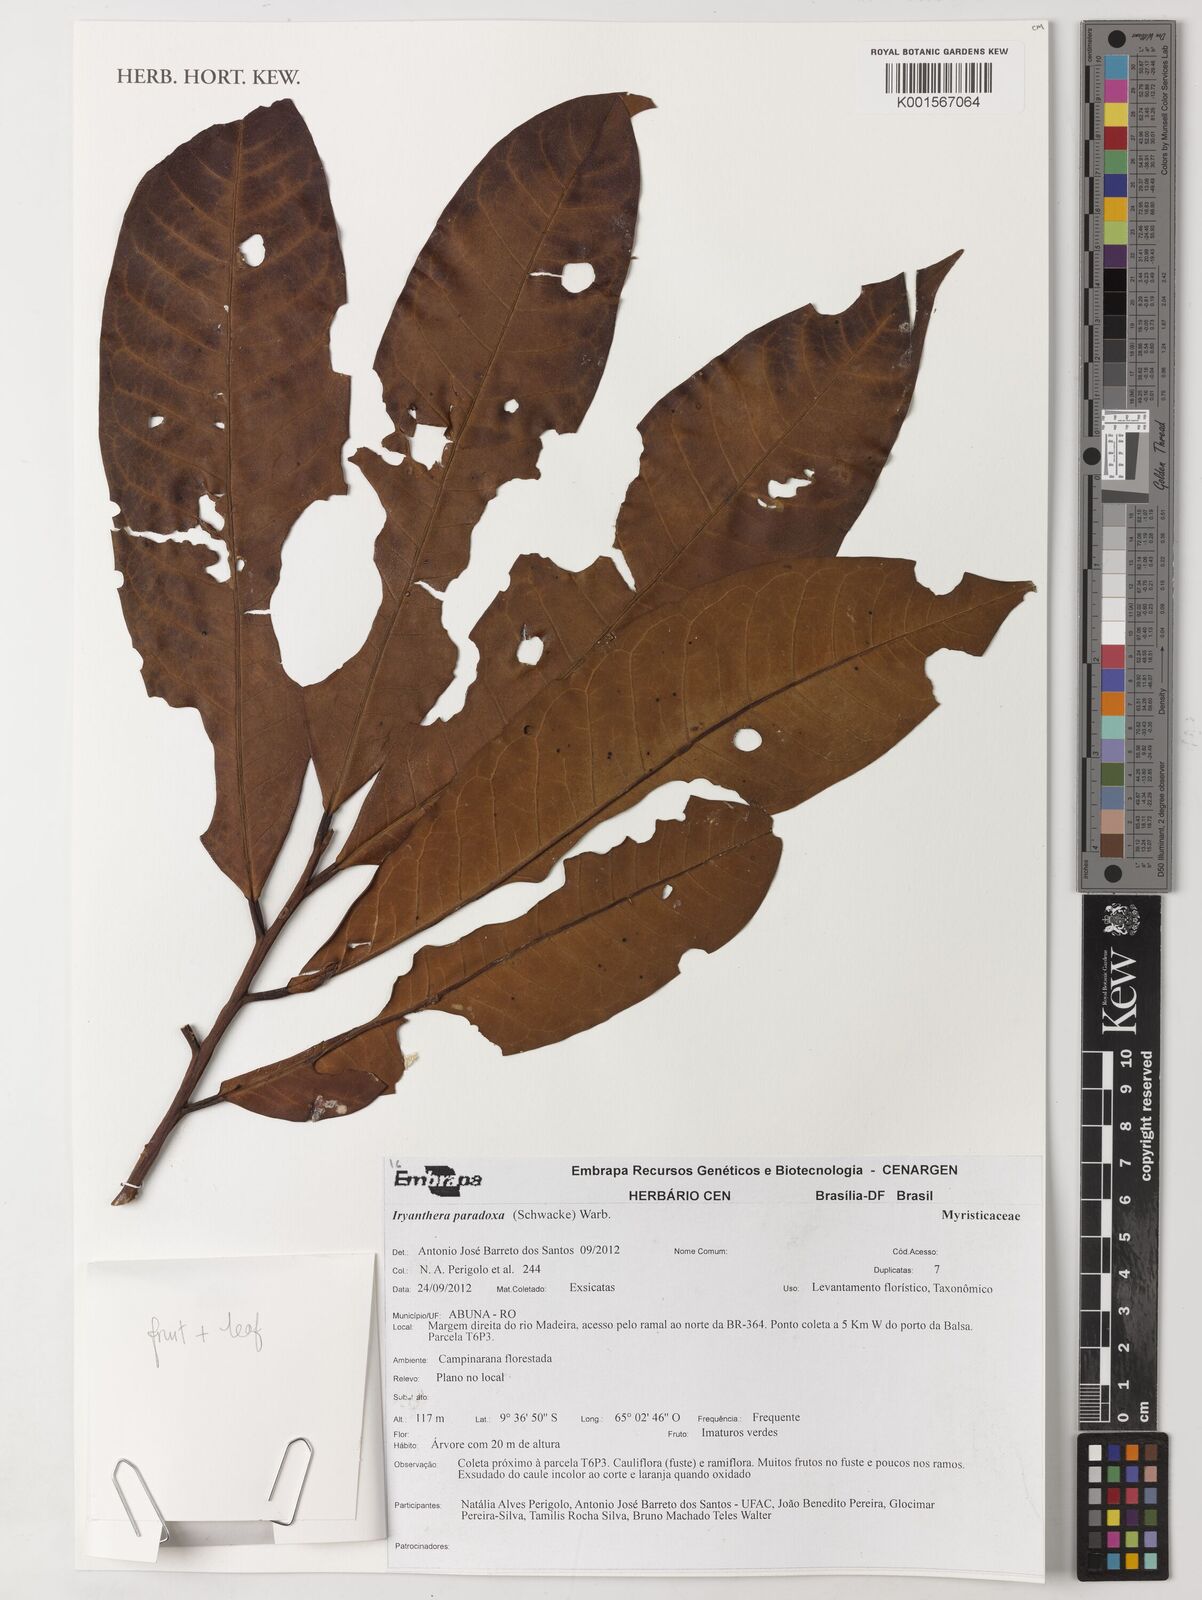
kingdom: Plantae
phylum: Tracheophyta
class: Magnoliopsida
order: Magnoliales
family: Myristicaceae
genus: Iryanthera
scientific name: Iryanthera paradoxa
